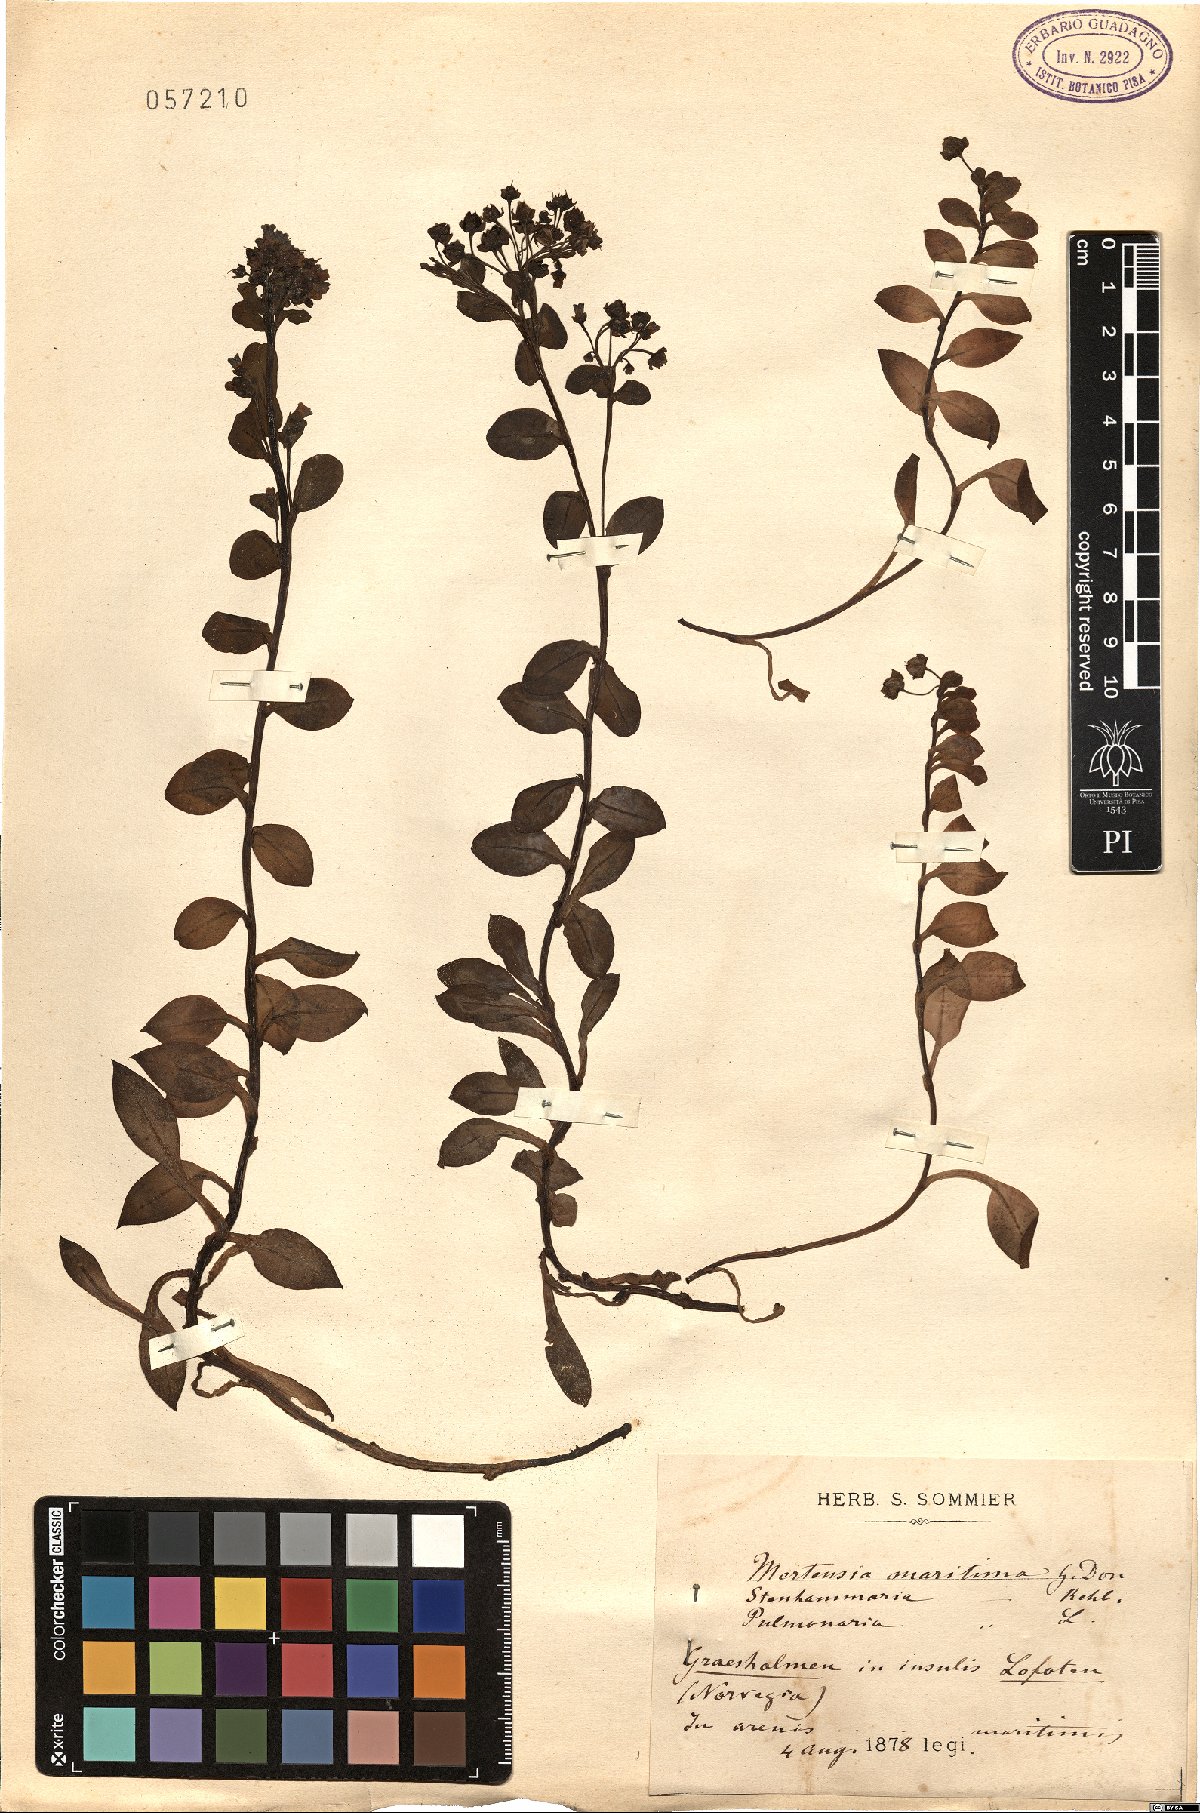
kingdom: Plantae
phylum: Tracheophyta
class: Magnoliopsida
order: Boraginales
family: Boraginaceae
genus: Mertensia
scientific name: Mertensia maritima
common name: Oysterplant
